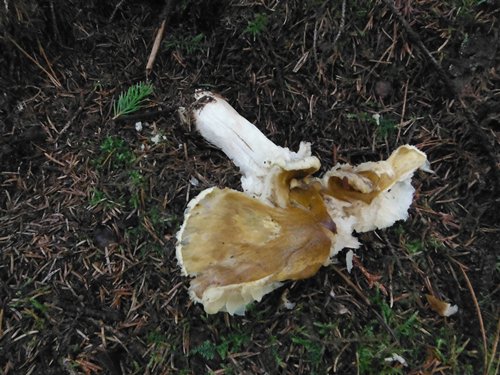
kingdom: Fungi
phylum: Basidiomycota
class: Agaricomycetes
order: Agaricales
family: Tricholomataceae
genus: Tricholoma
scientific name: Tricholoma arvernense
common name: kantet ridderhat
